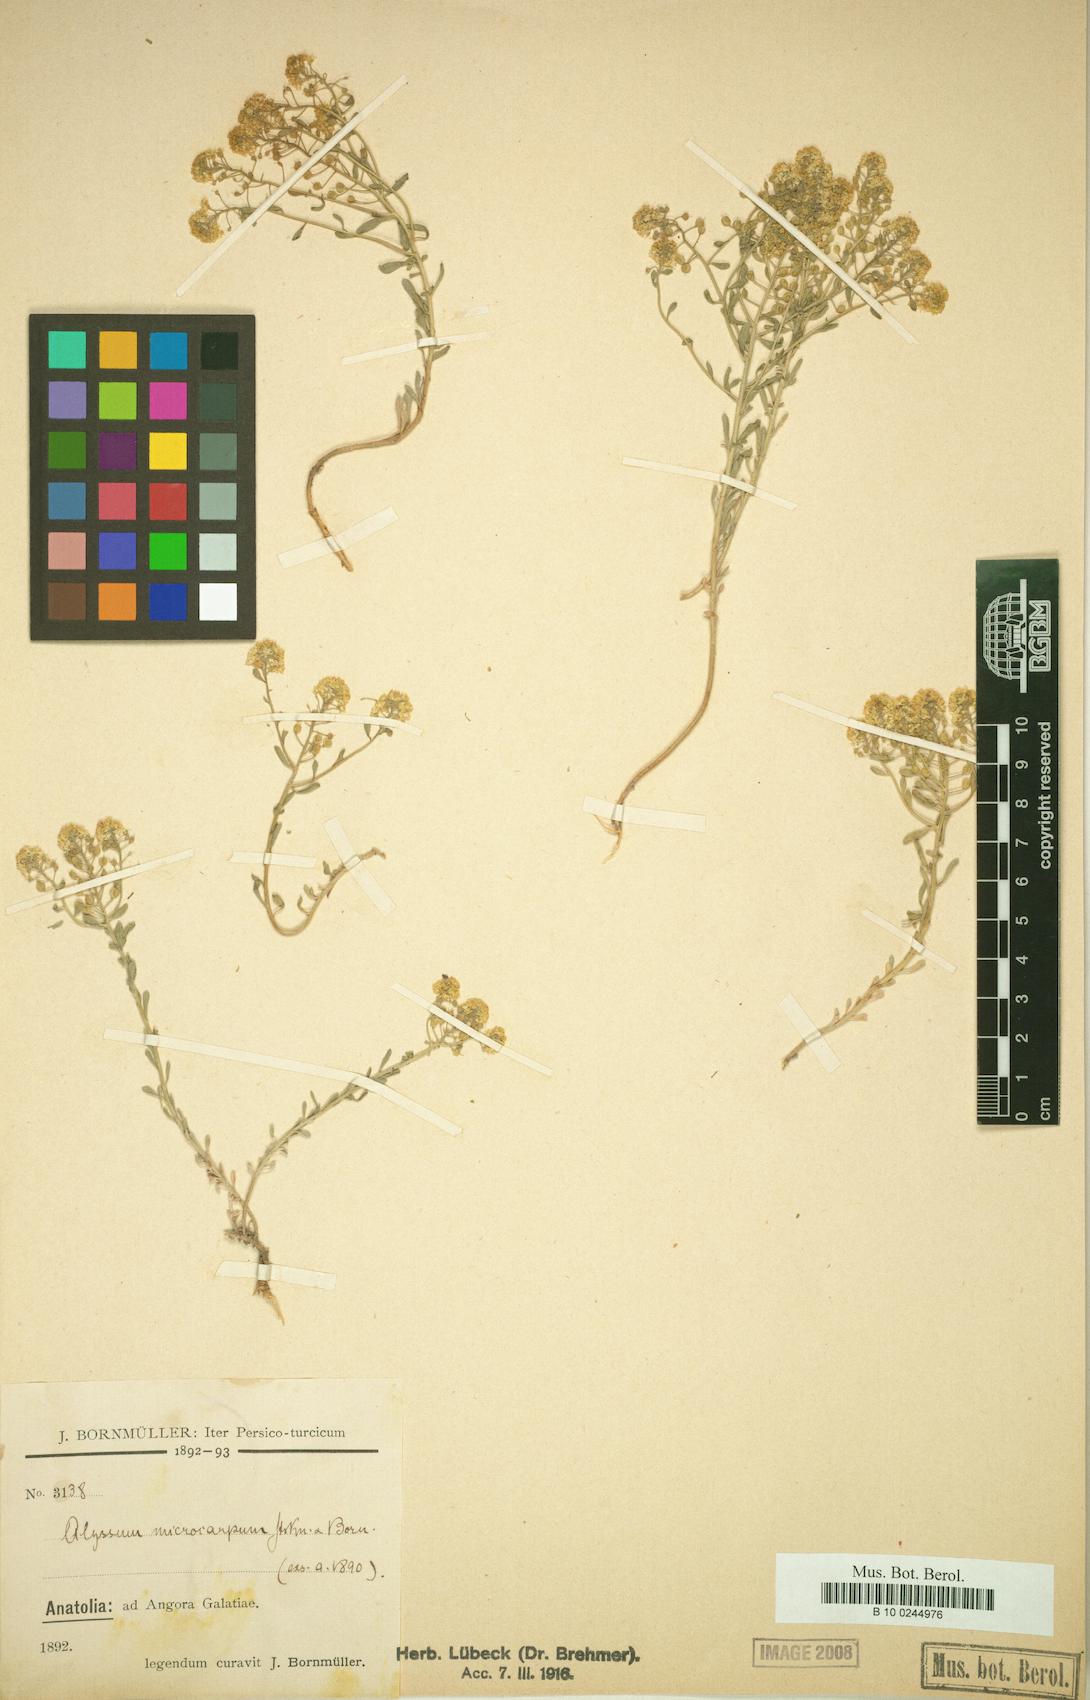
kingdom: Plantae
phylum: Tracheophyta
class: Magnoliopsida
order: Brassicales
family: Brassicaceae
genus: Aurinia
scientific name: Aurinia petraea
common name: Goldentuft
